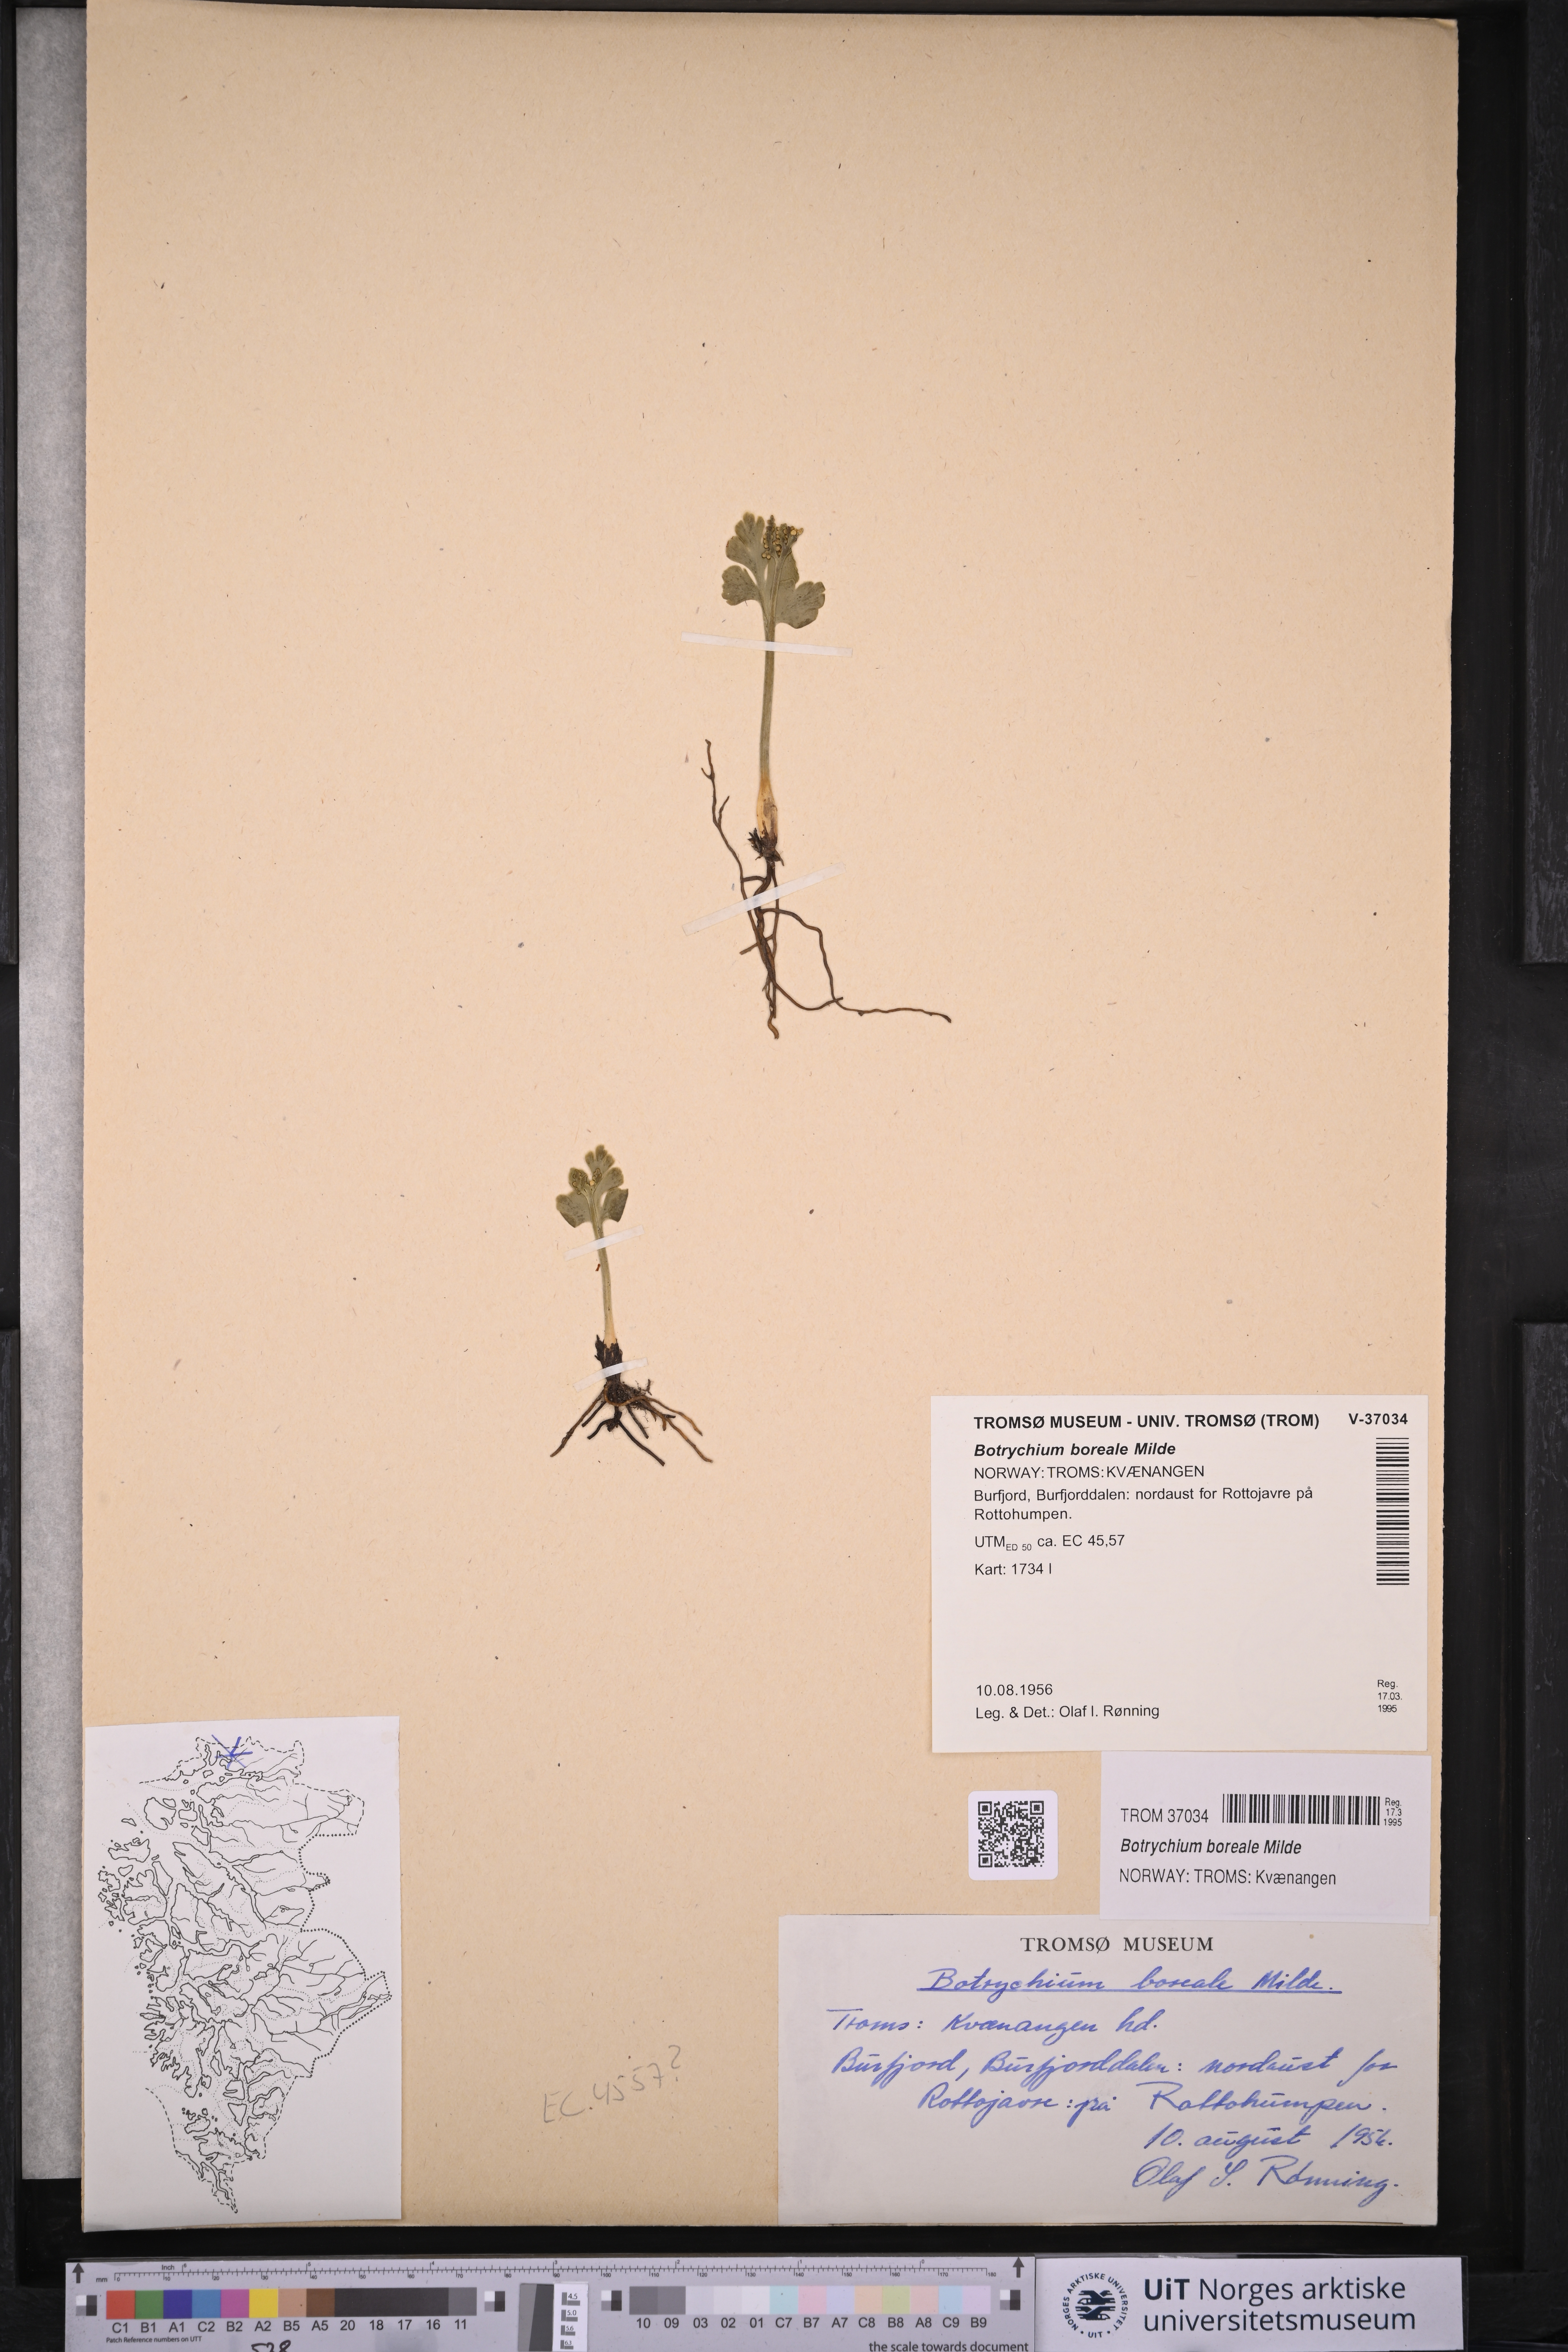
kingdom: Plantae
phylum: Tracheophyta
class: Polypodiopsida
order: Ophioglossales
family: Ophioglossaceae
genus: Botrychium
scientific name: Botrychium boreale
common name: Boreal moonwort
